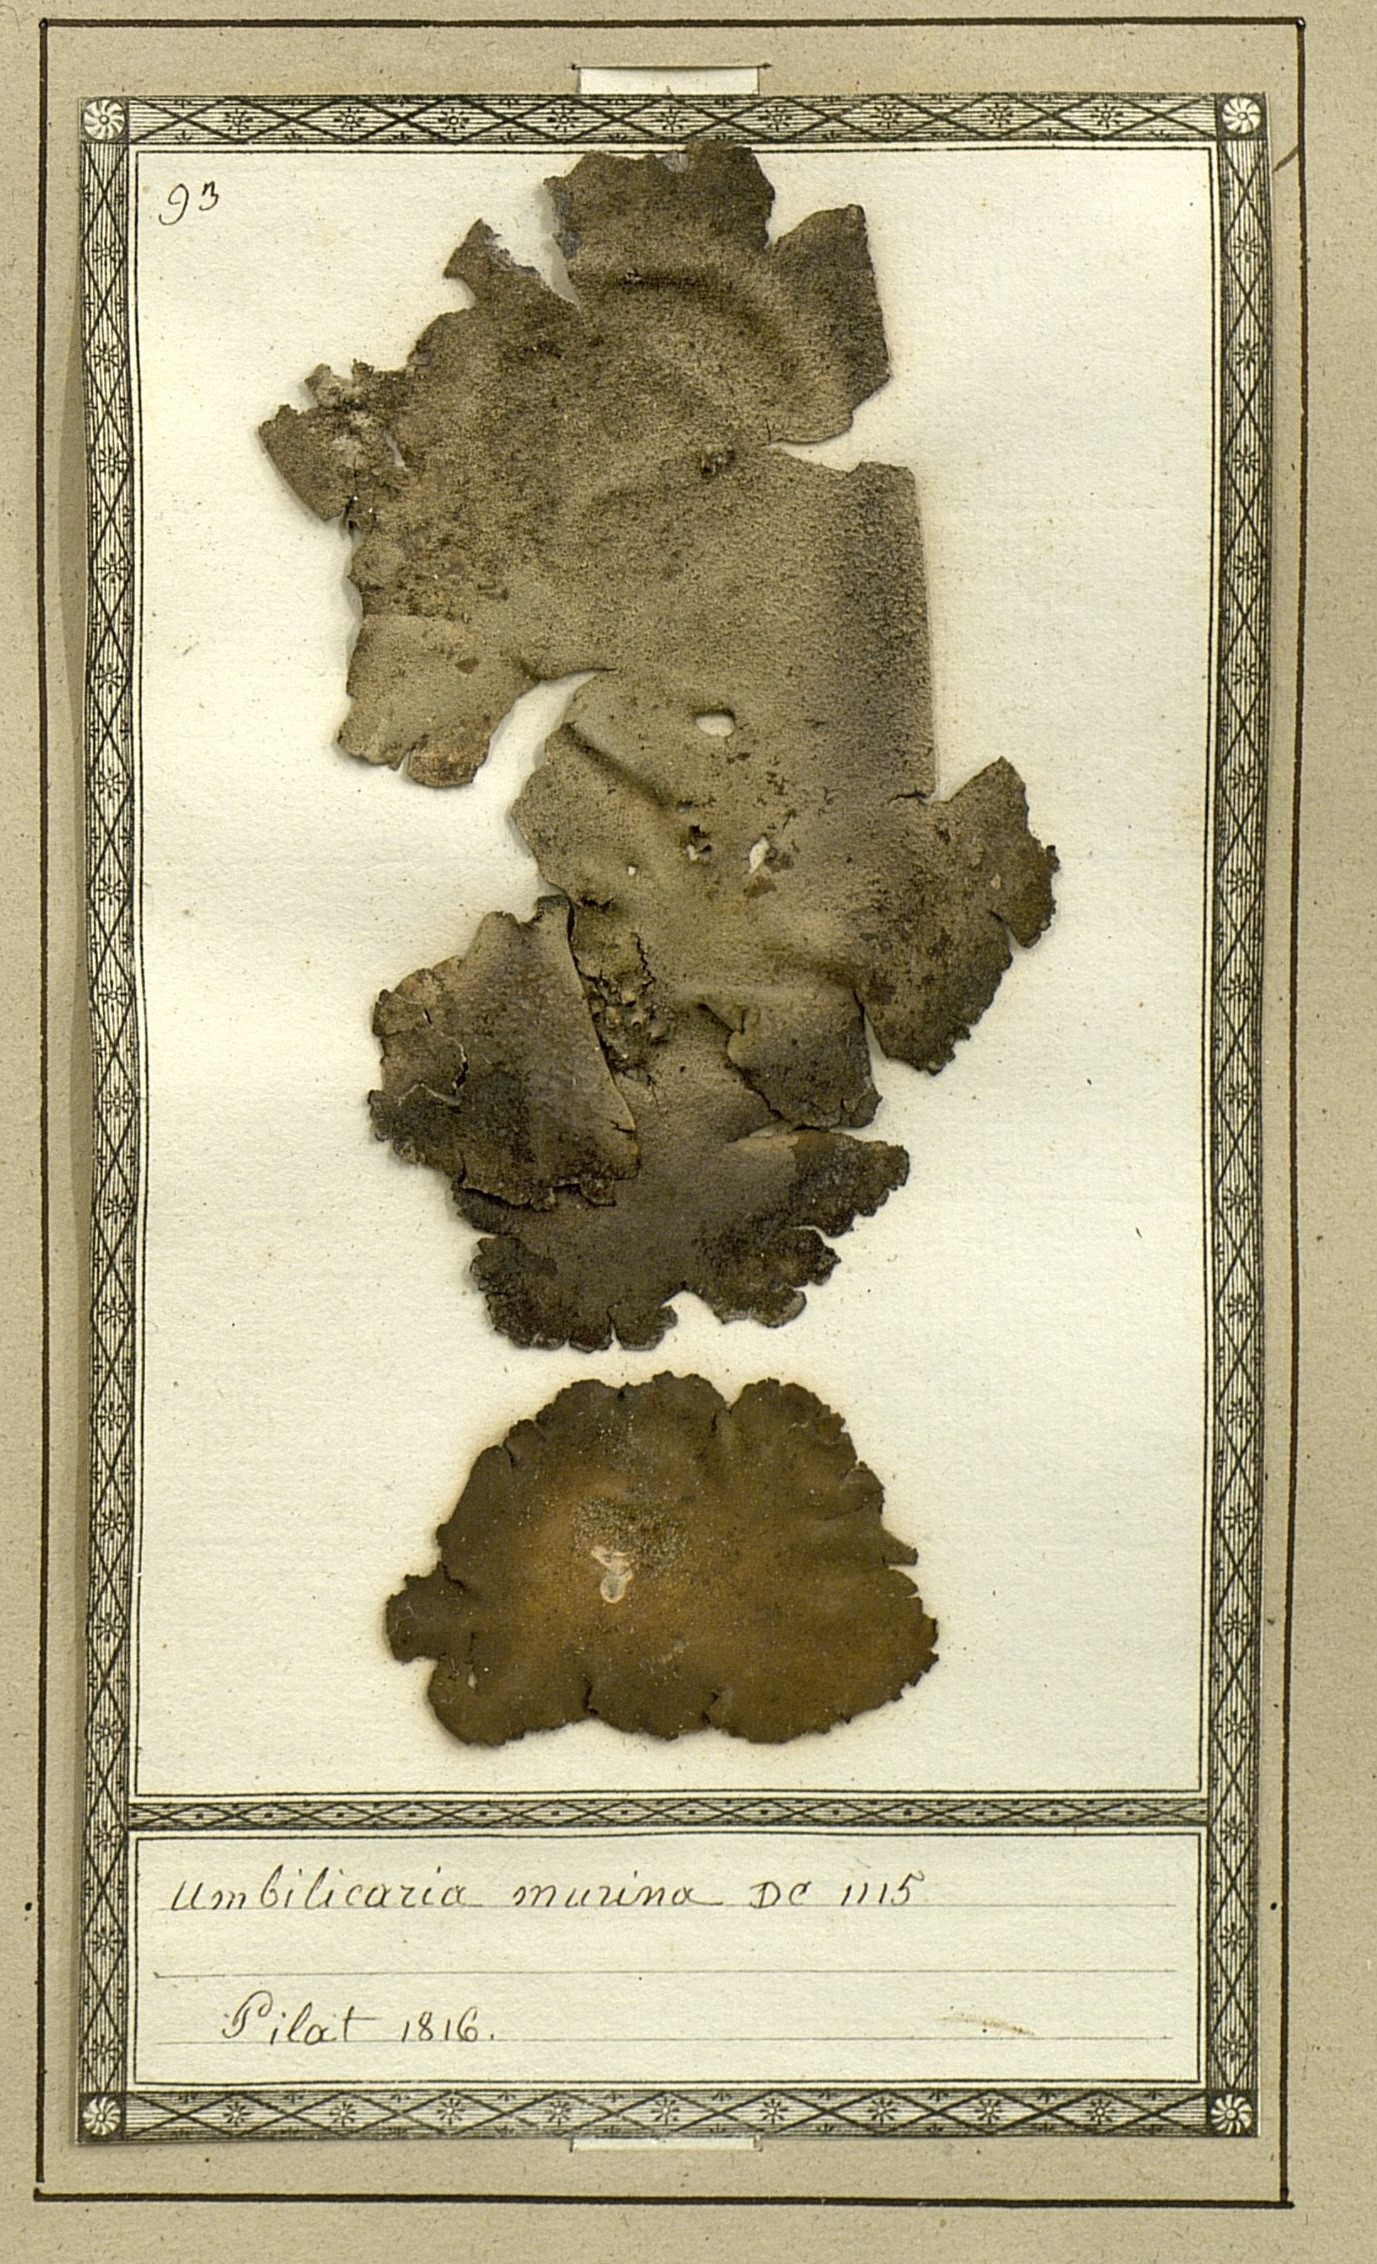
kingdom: Fungi
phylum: Ascomycota
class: Lecanoromycetes
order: Umbilicariales
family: Umbilicariaceae
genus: Umbilicaria
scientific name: Umbilicaria hirsuta
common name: Granulating rocktripe lichen
